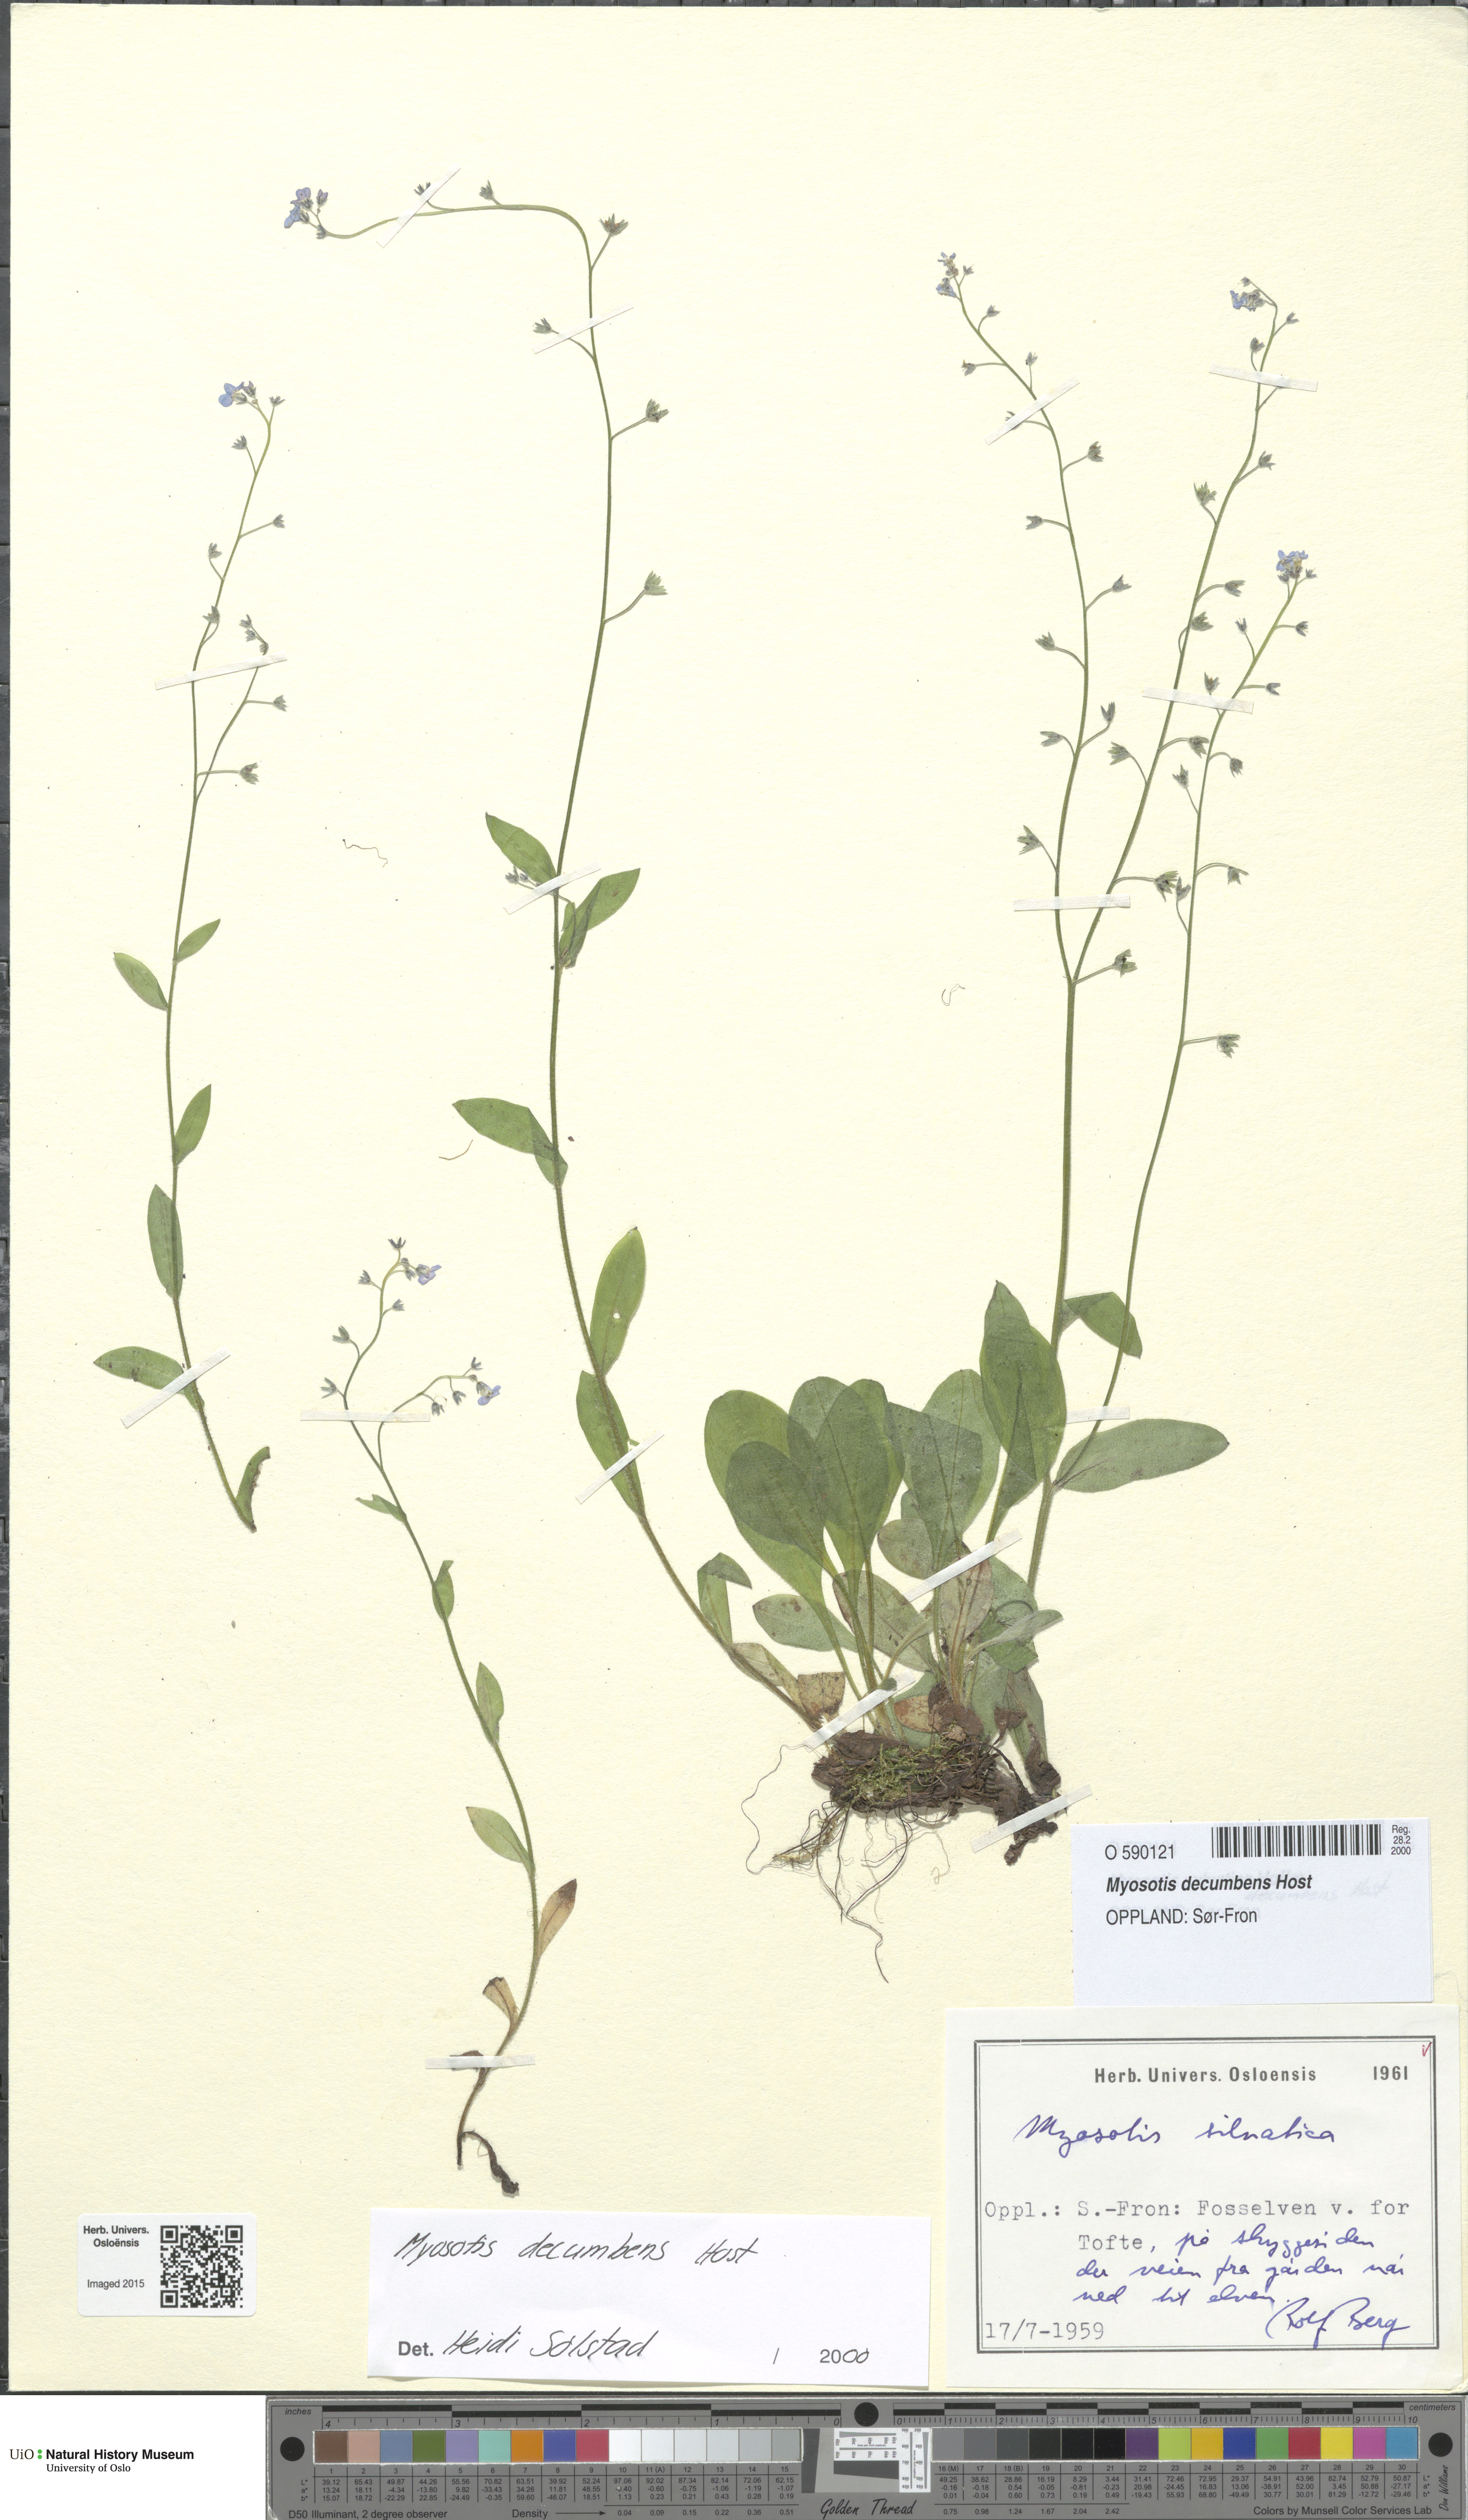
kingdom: Plantae
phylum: Tracheophyta
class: Magnoliopsida
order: Boraginales
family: Boraginaceae
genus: Myosotis
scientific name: Myosotis decumbens
